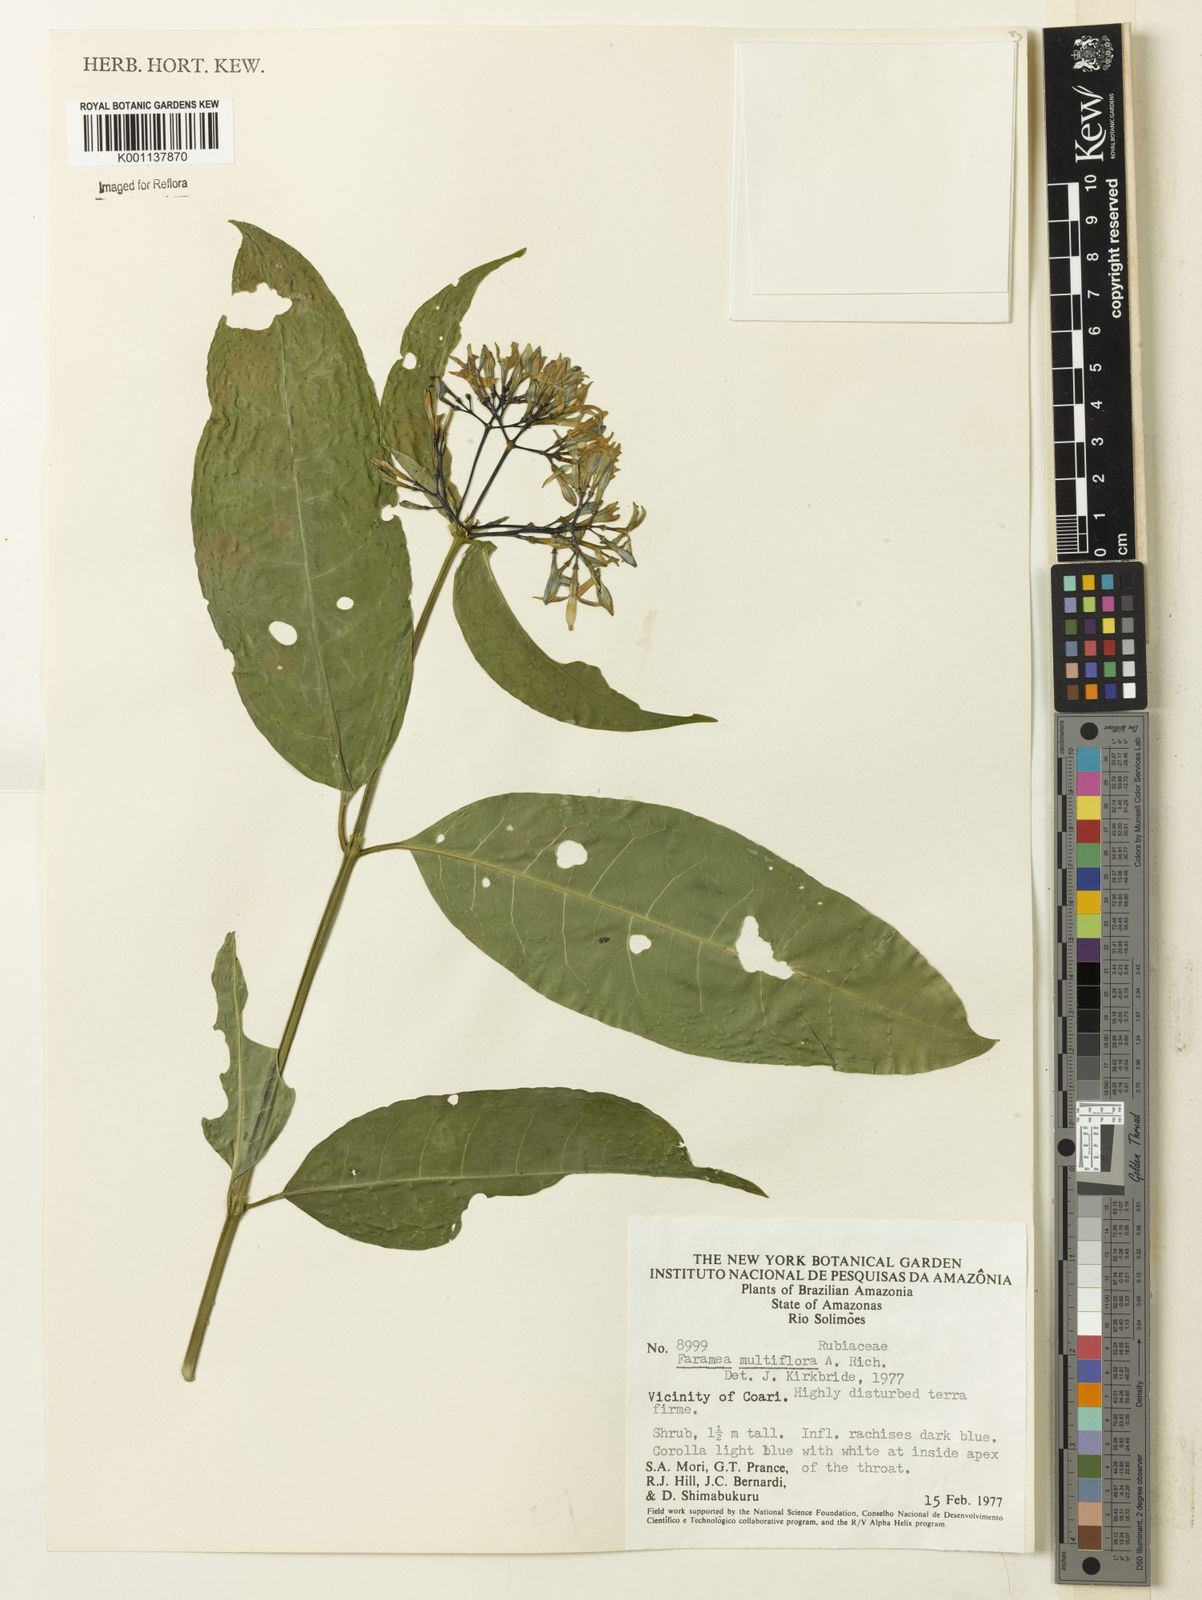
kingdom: Plantae
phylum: Tracheophyta
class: Magnoliopsida
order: Gentianales
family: Rubiaceae
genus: Faramea
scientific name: Faramea multiflora
